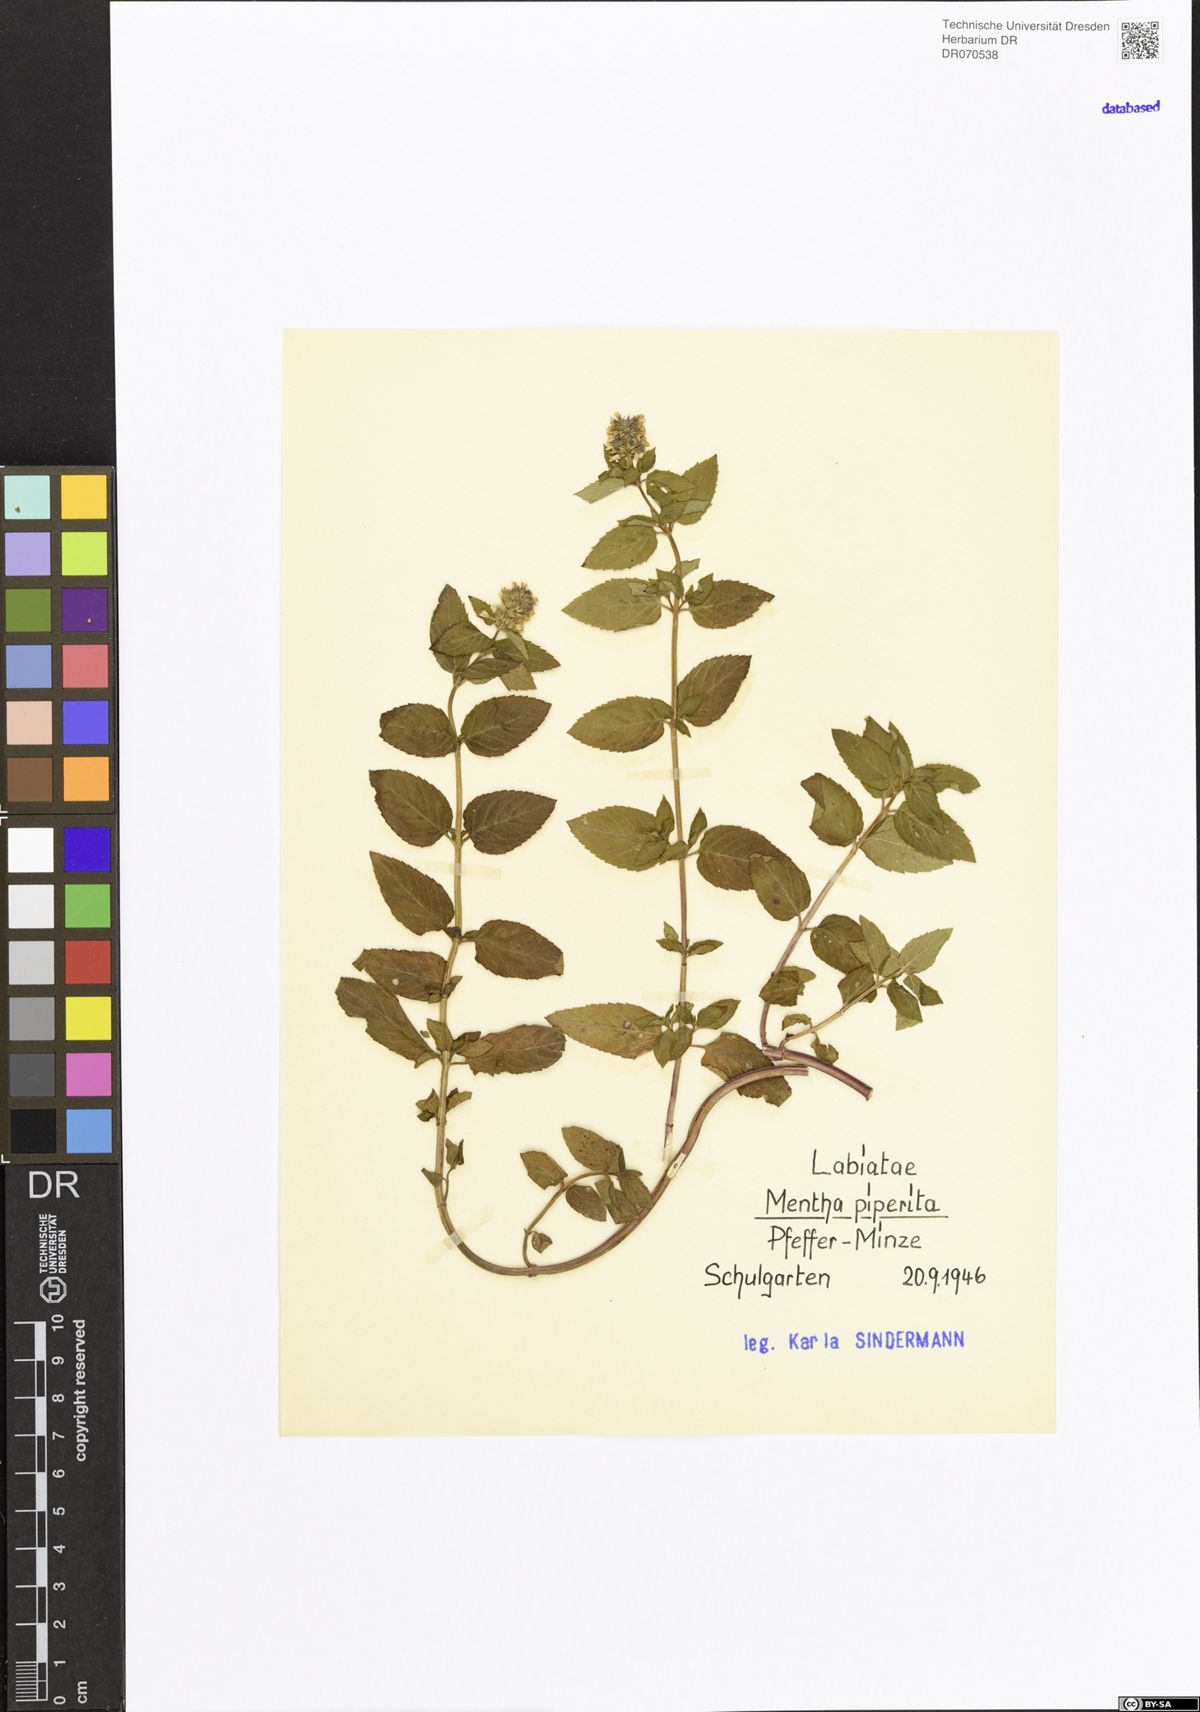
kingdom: Plantae
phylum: Tracheophyta
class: Magnoliopsida
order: Lamiales
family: Lamiaceae
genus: Mentha
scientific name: Mentha piperita
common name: Peppermint
